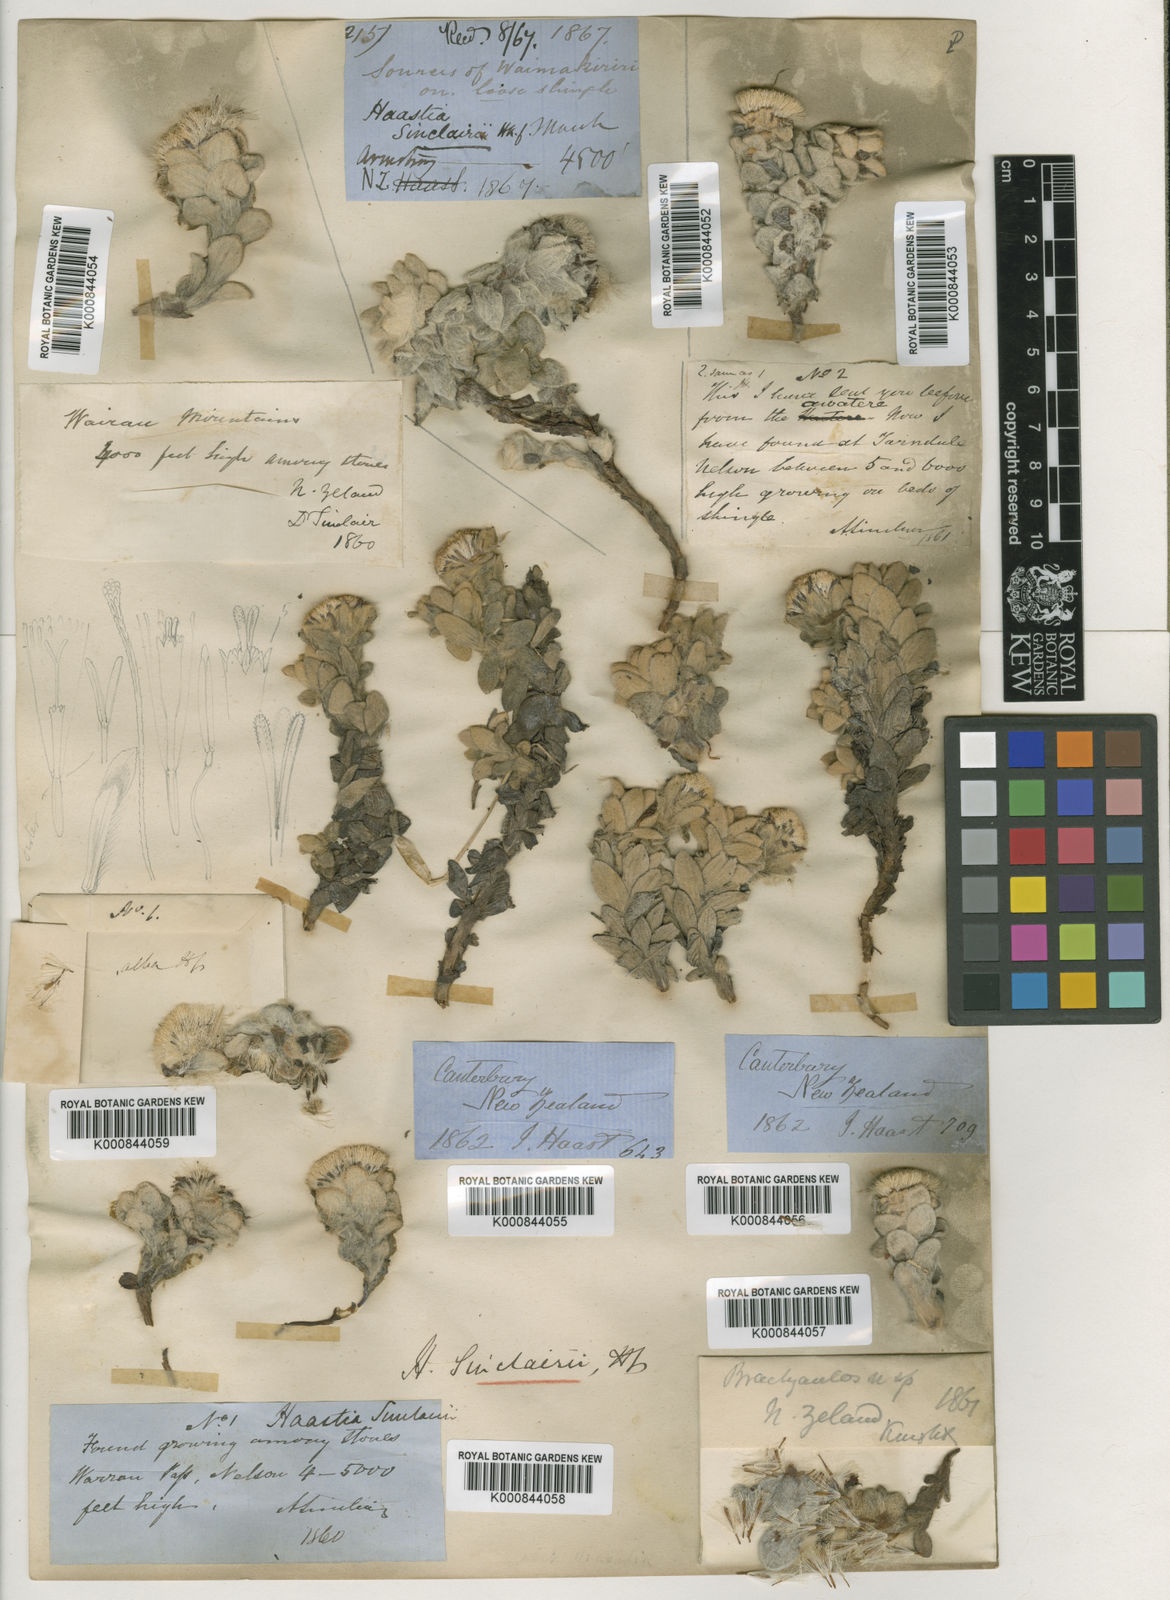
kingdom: Plantae
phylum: Tracheophyta
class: Magnoliopsida
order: Asterales
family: Asteraceae
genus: Haastia
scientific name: Haastia sinclairii
